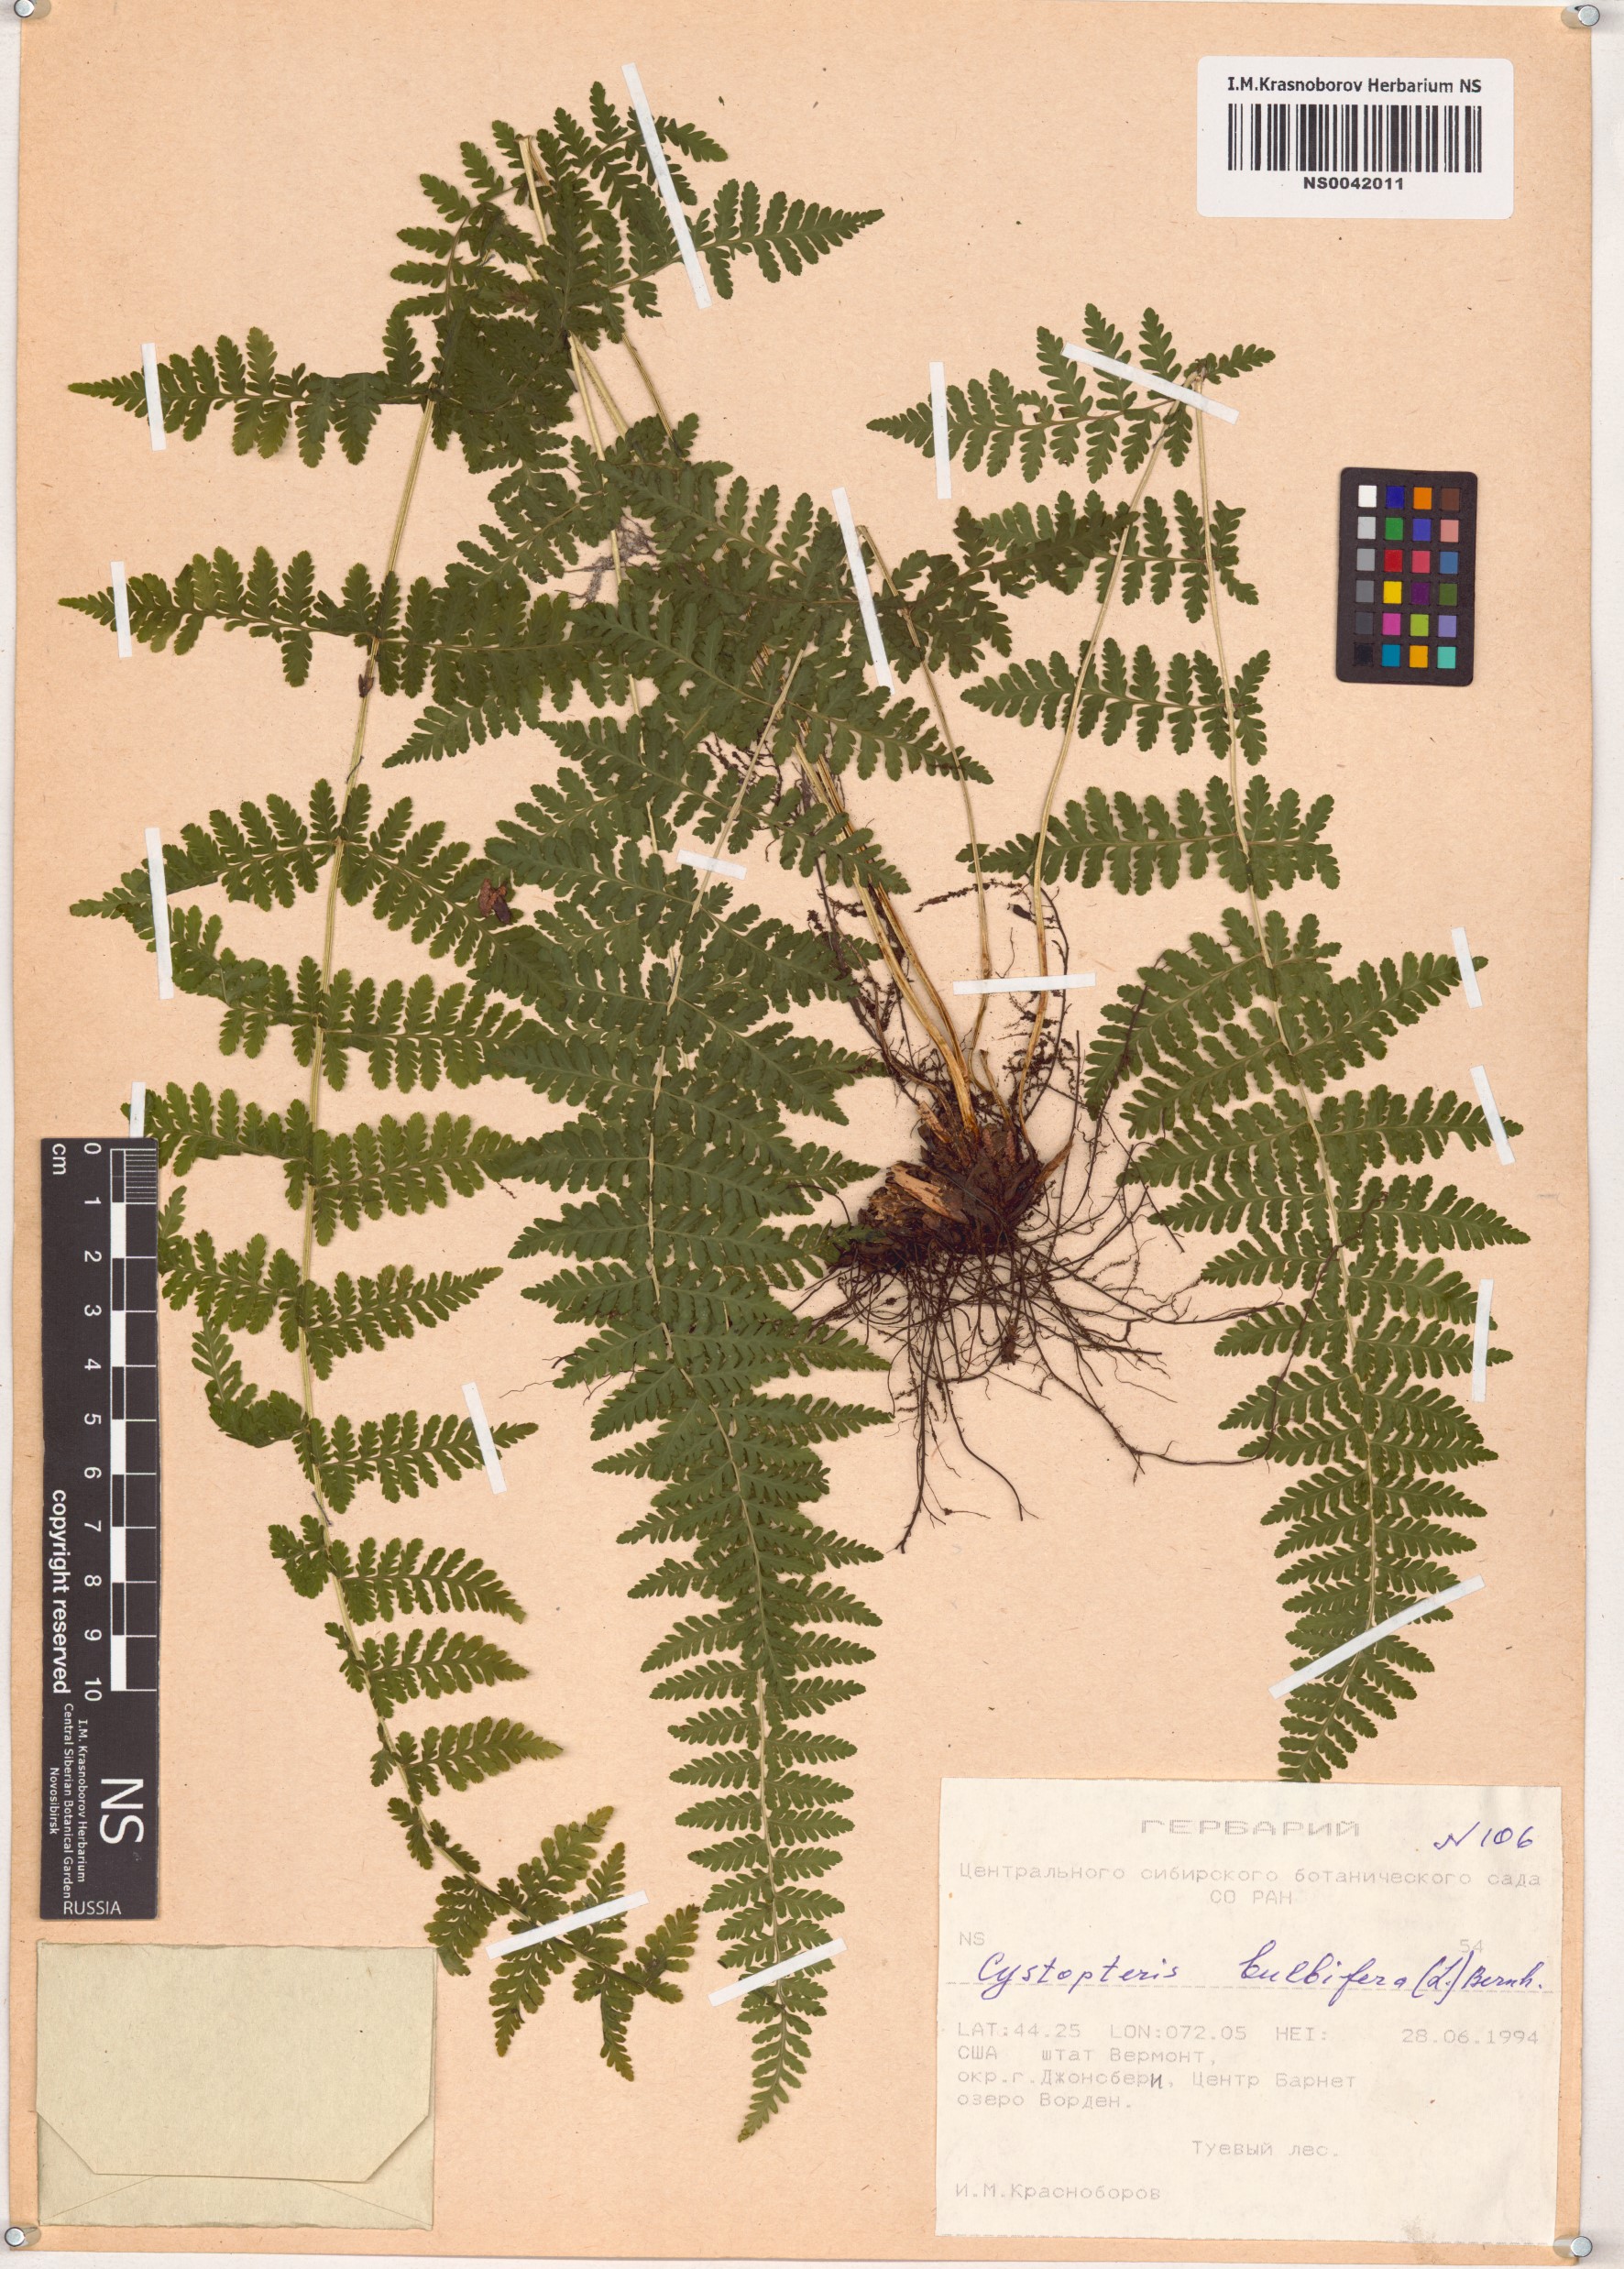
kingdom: Plantae
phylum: Tracheophyta
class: Polypodiopsida
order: Polypodiales
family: Cystopteridaceae
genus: Cystopteris
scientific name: Cystopteris bulbifera
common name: Bulblet bladder fern
